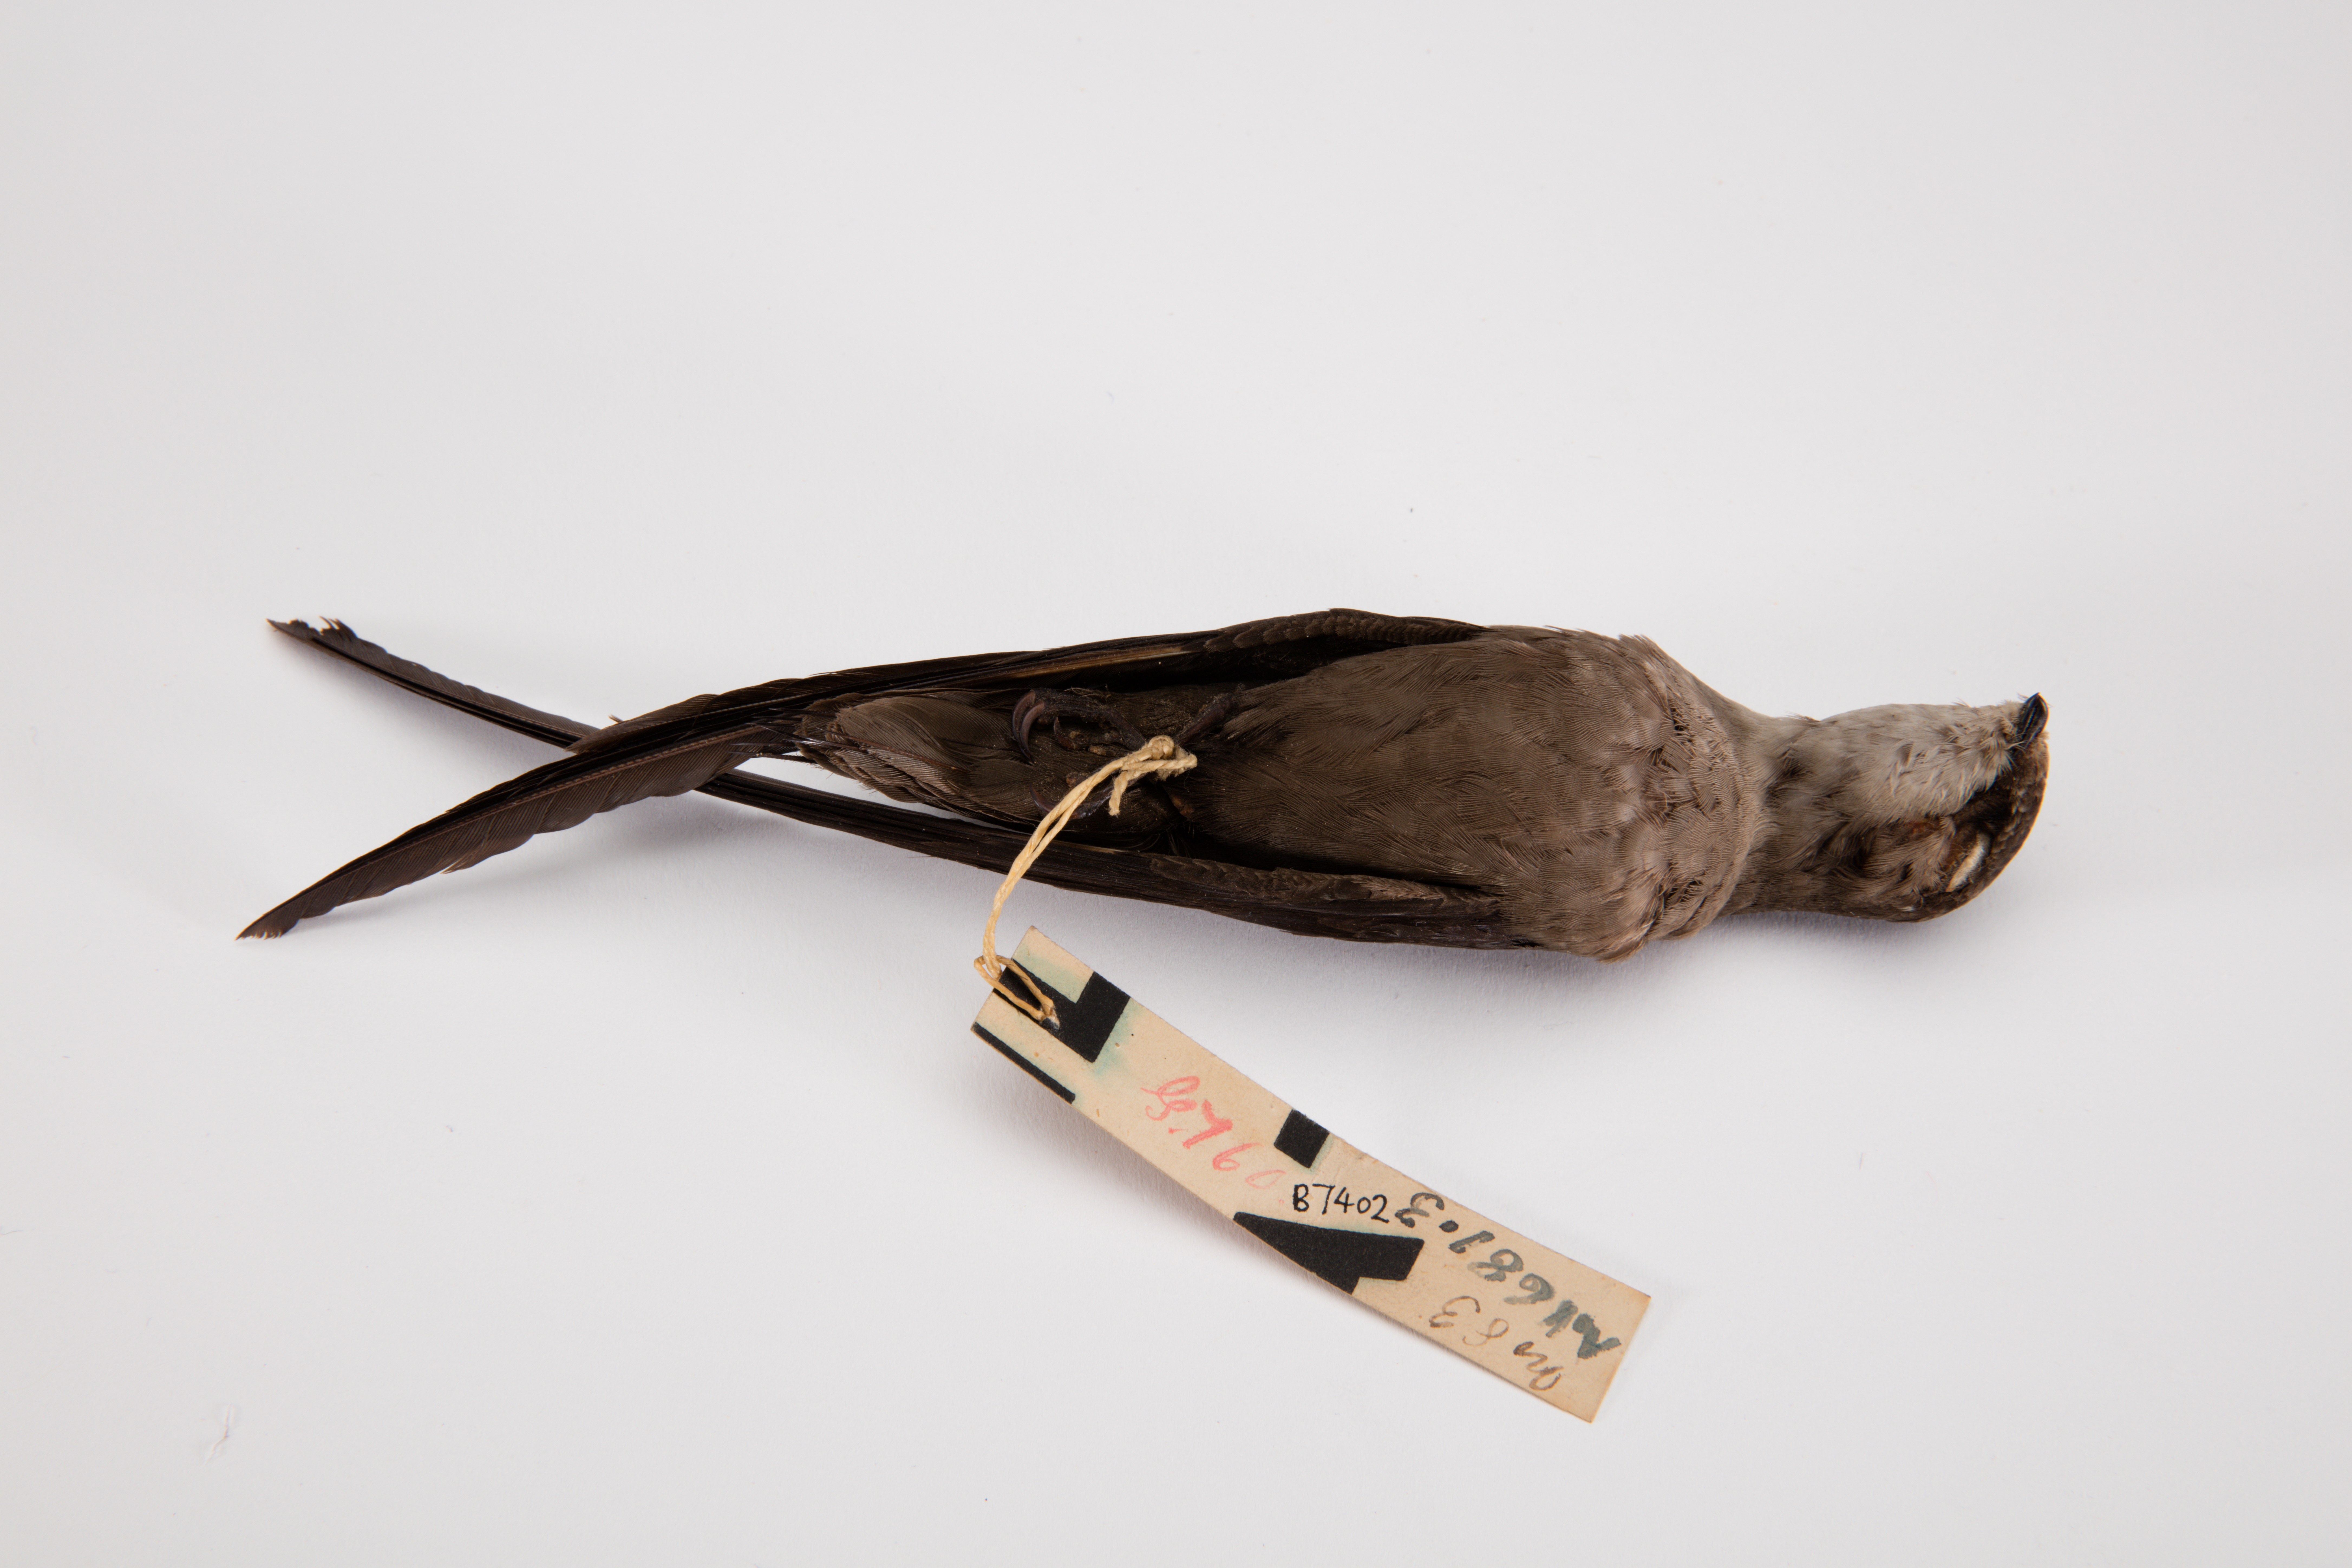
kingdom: Animalia
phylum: Chordata
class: Aves
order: Apodiformes
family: Apodidae
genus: Chaetura
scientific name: Chaetura pelagica
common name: Chimney swift
